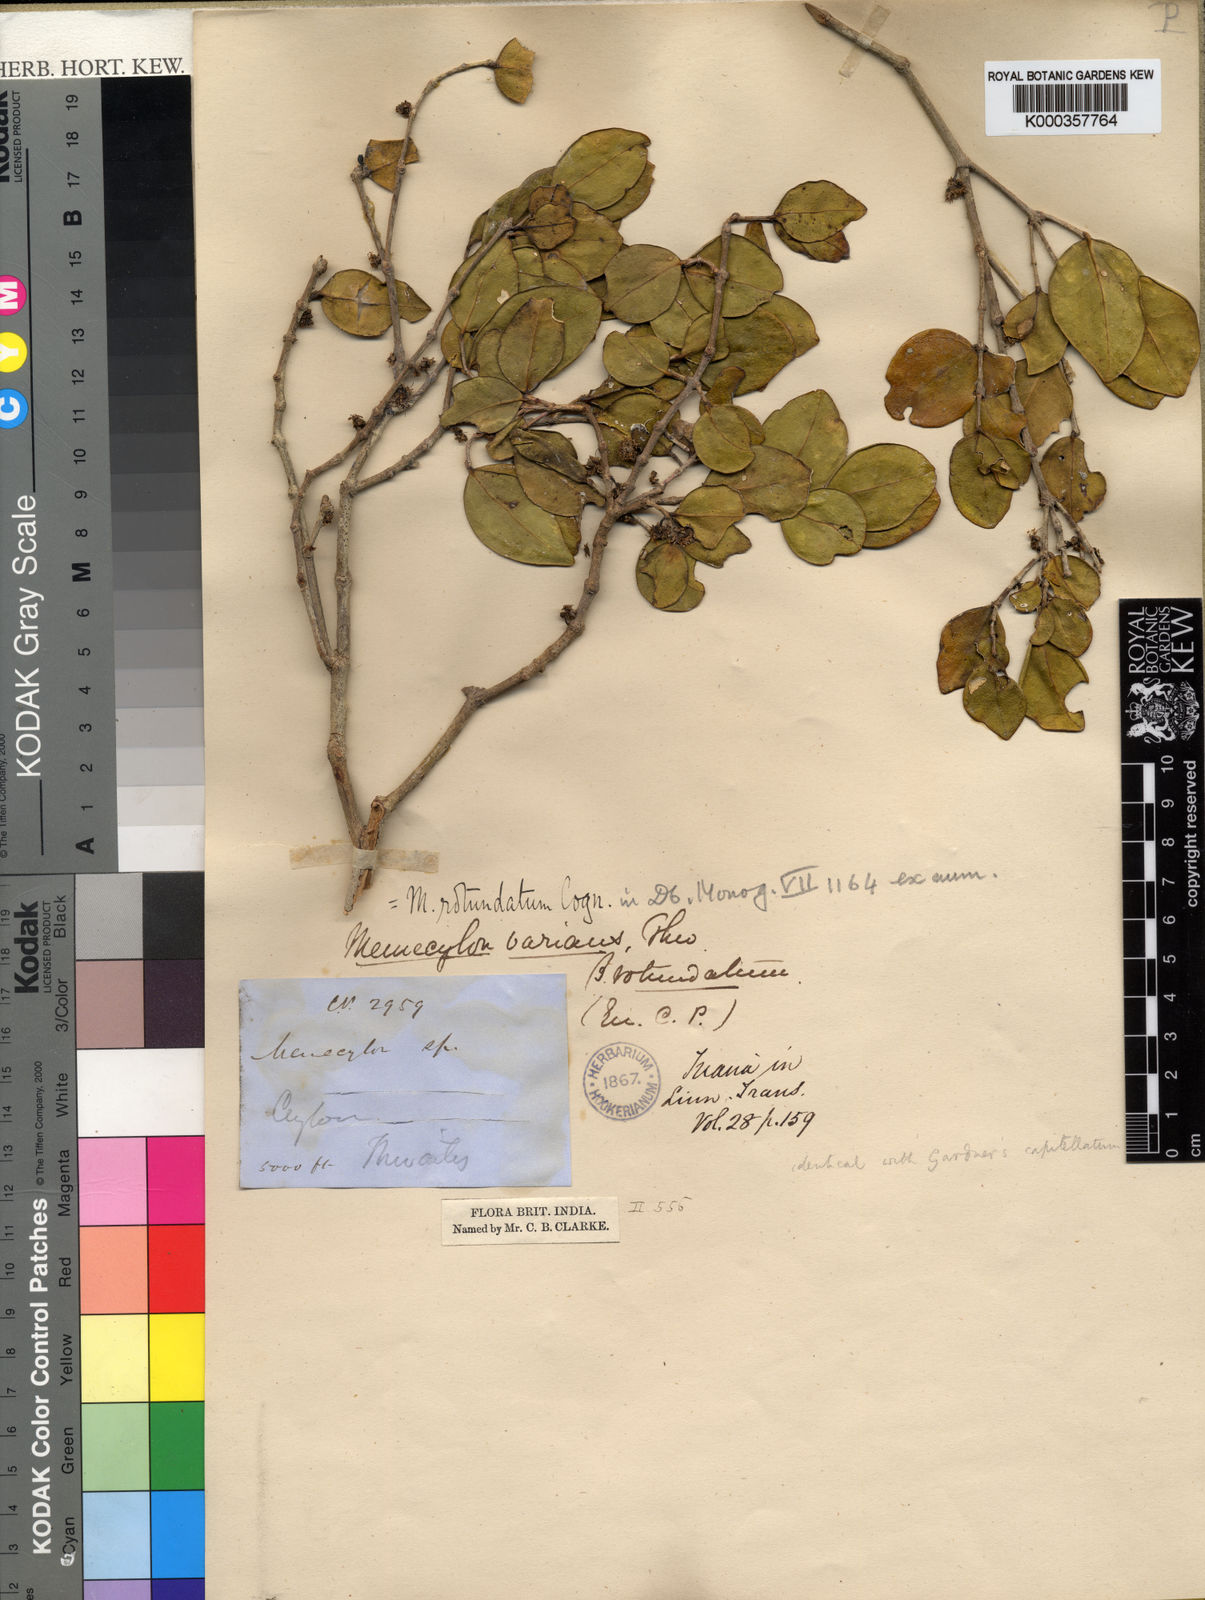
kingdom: Plantae
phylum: Tracheophyta
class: Magnoliopsida
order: Myrtales
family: Melastomataceae
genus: Memecylon
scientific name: Memecylon rotundatum
